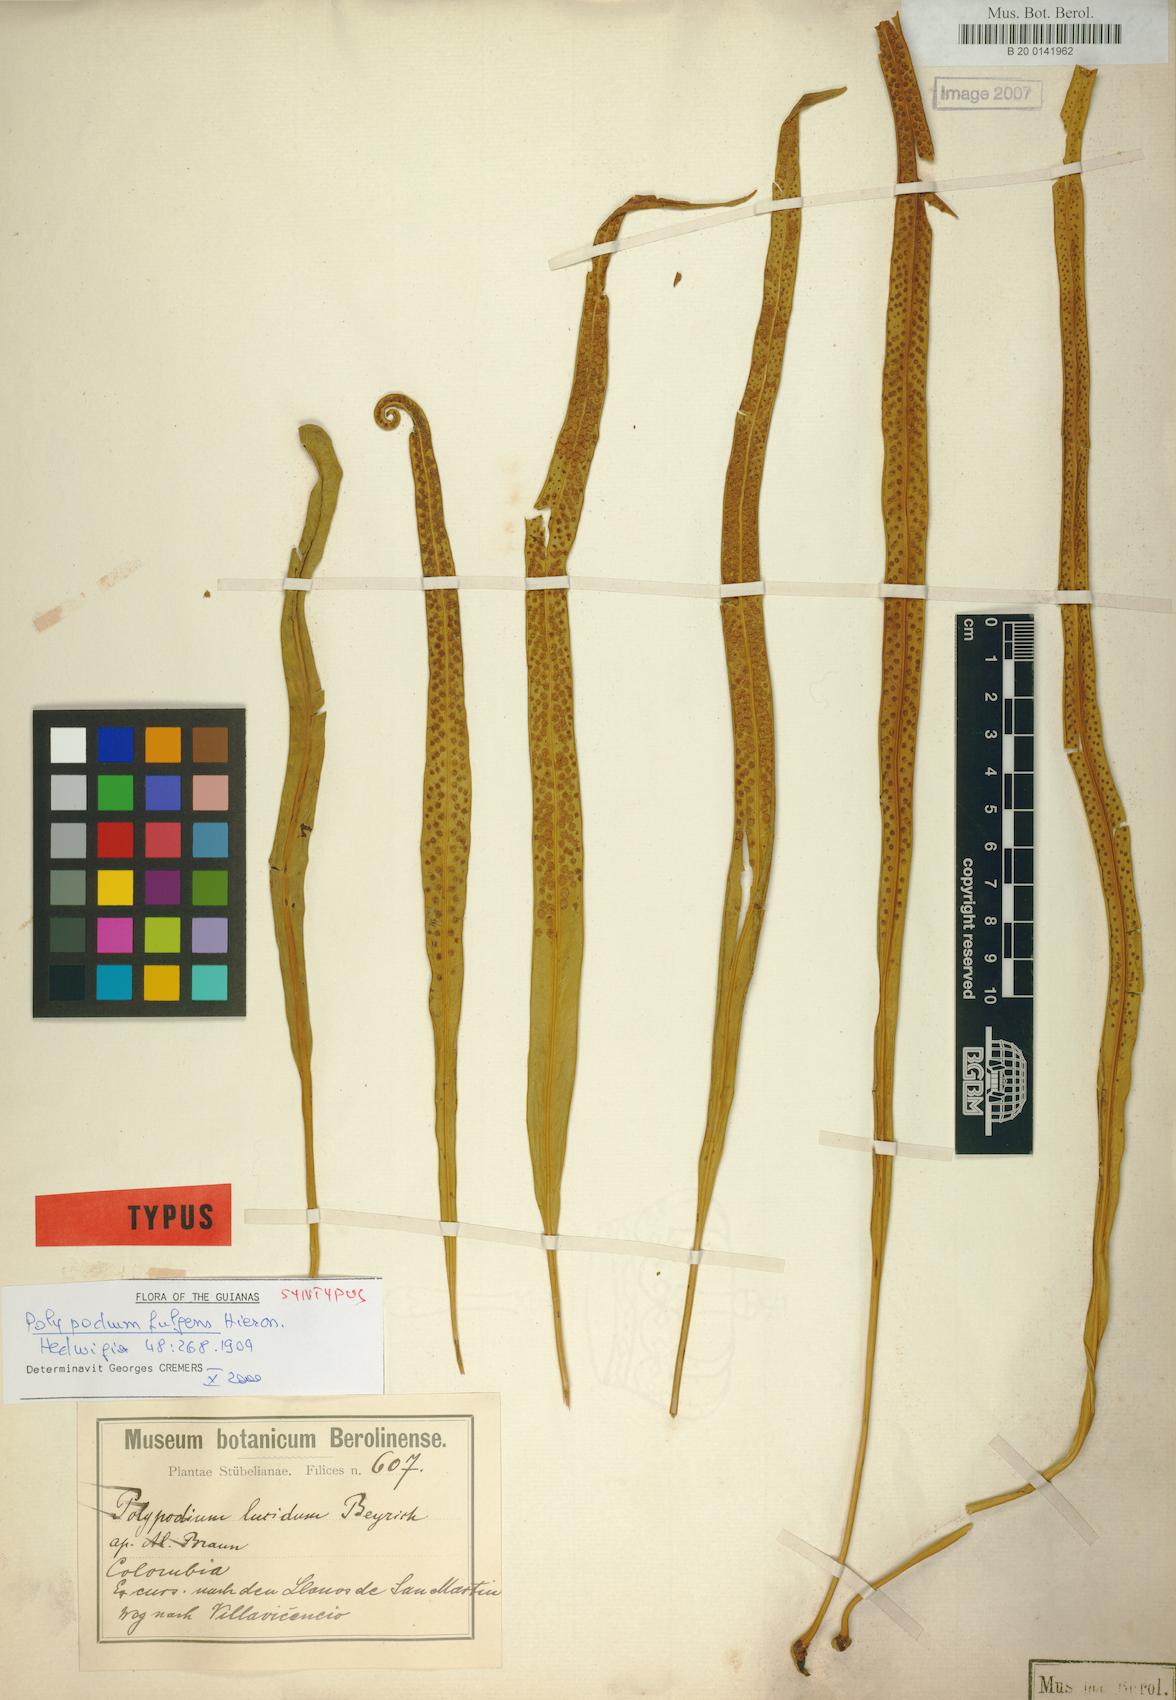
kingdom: Plantae
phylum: Tracheophyta
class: Polypodiopsida
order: Polypodiales
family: Polypodiaceae
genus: Campyloneurum
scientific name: Campyloneurum rigidum
